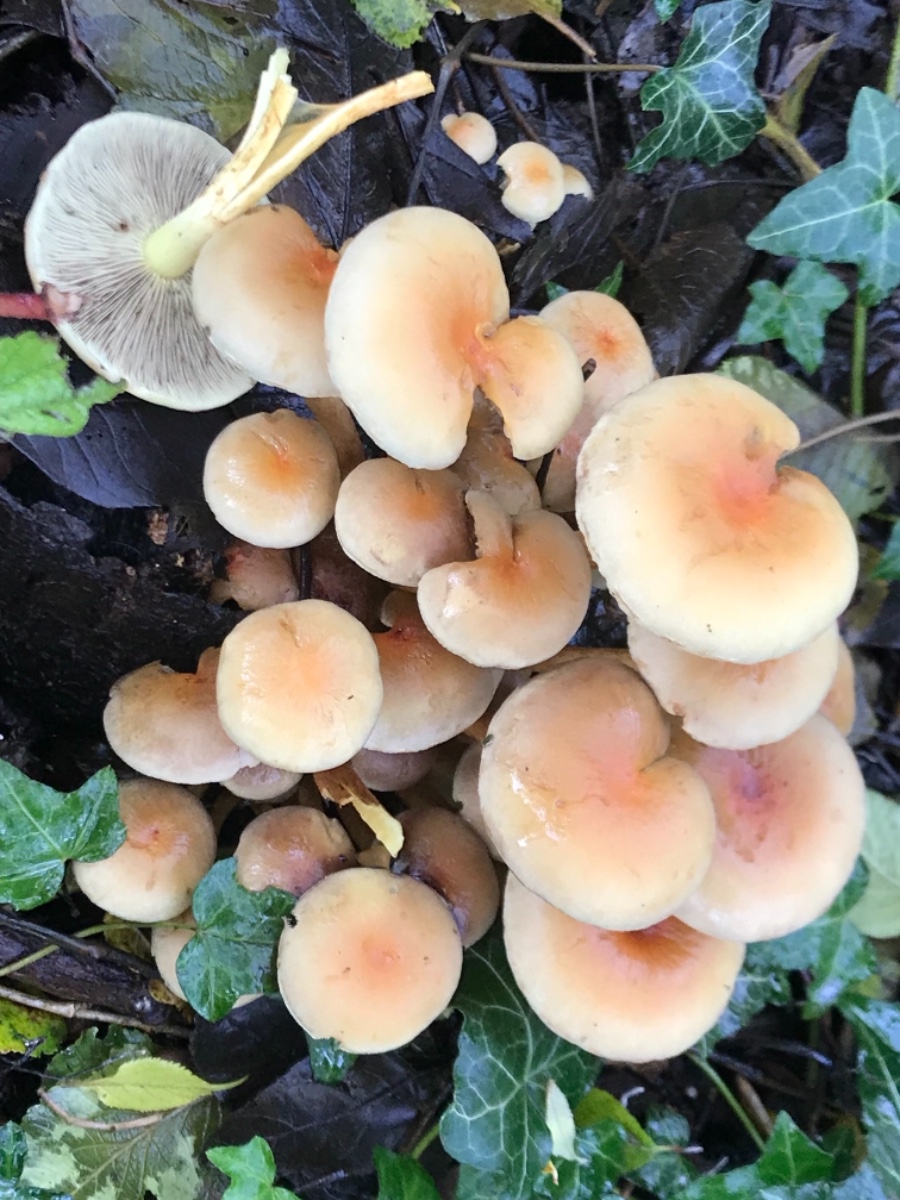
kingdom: Fungi
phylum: Basidiomycota
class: Agaricomycetes
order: Agaricales
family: Strophariaceae
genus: Hypholoma
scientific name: Hypholoma fasciculare
